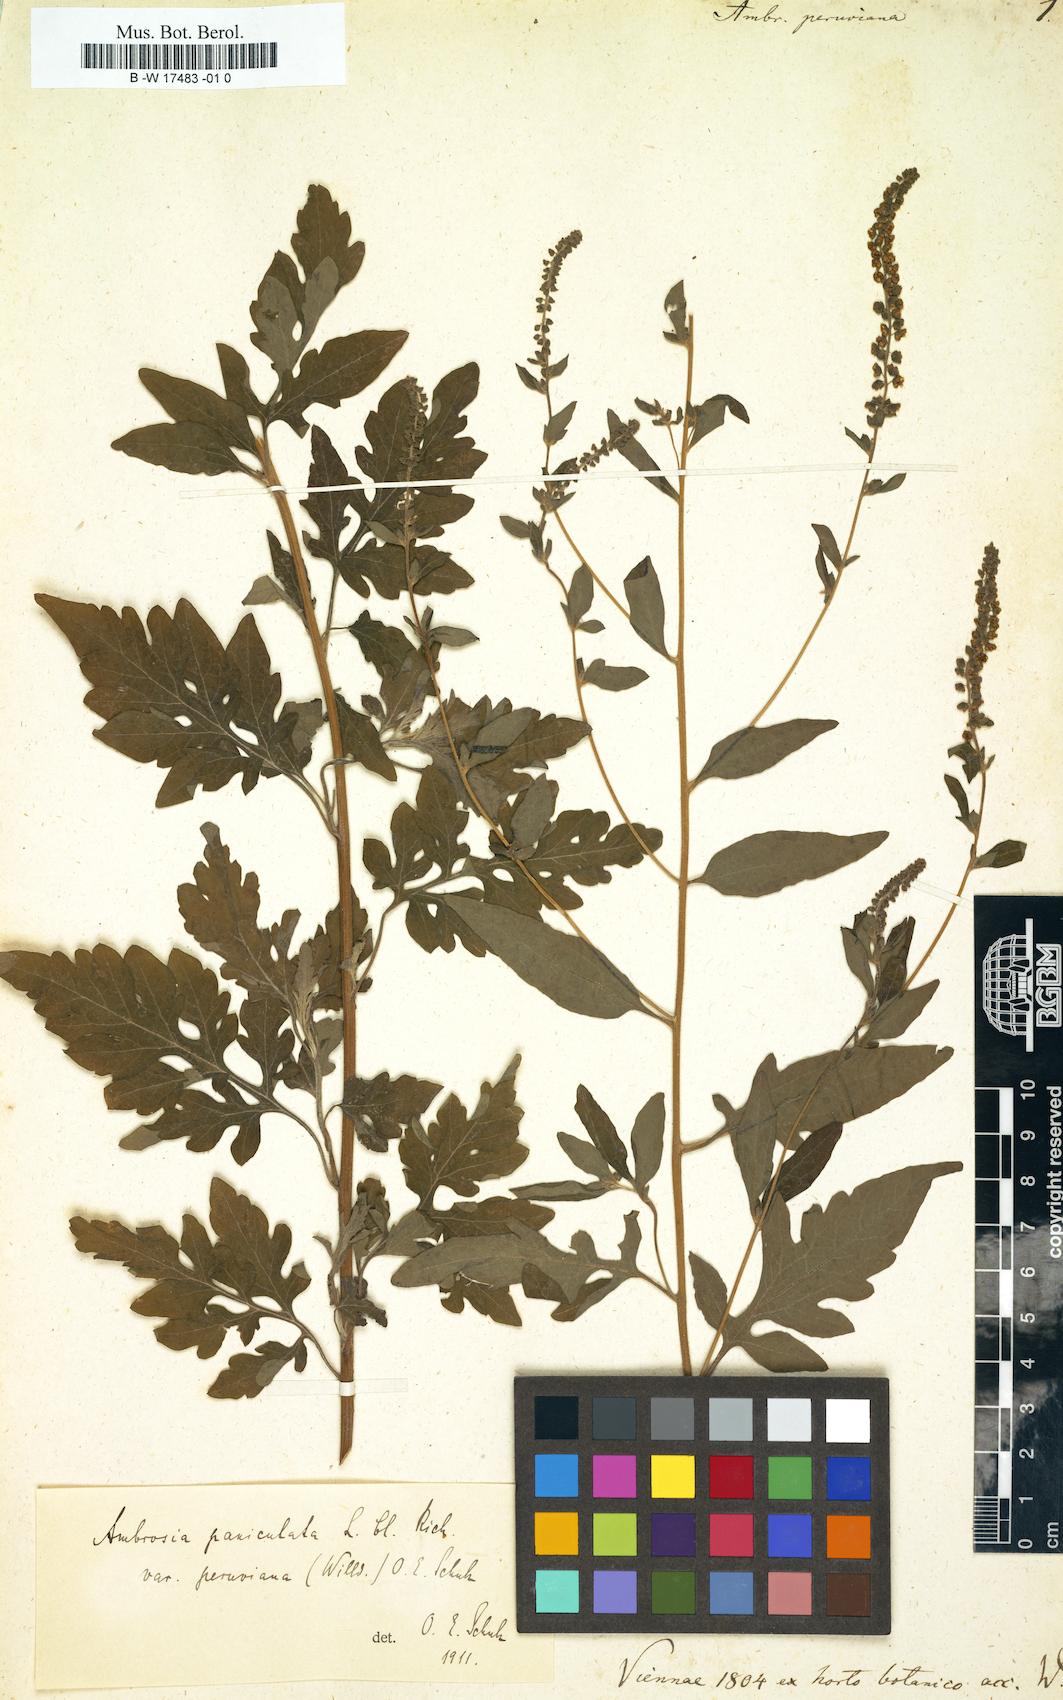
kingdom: Plantae
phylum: Tracheophyta
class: Magnoliopsida
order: Asterales
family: Asteraceae
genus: Ambrosia
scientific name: Ambrosia cumanensis
